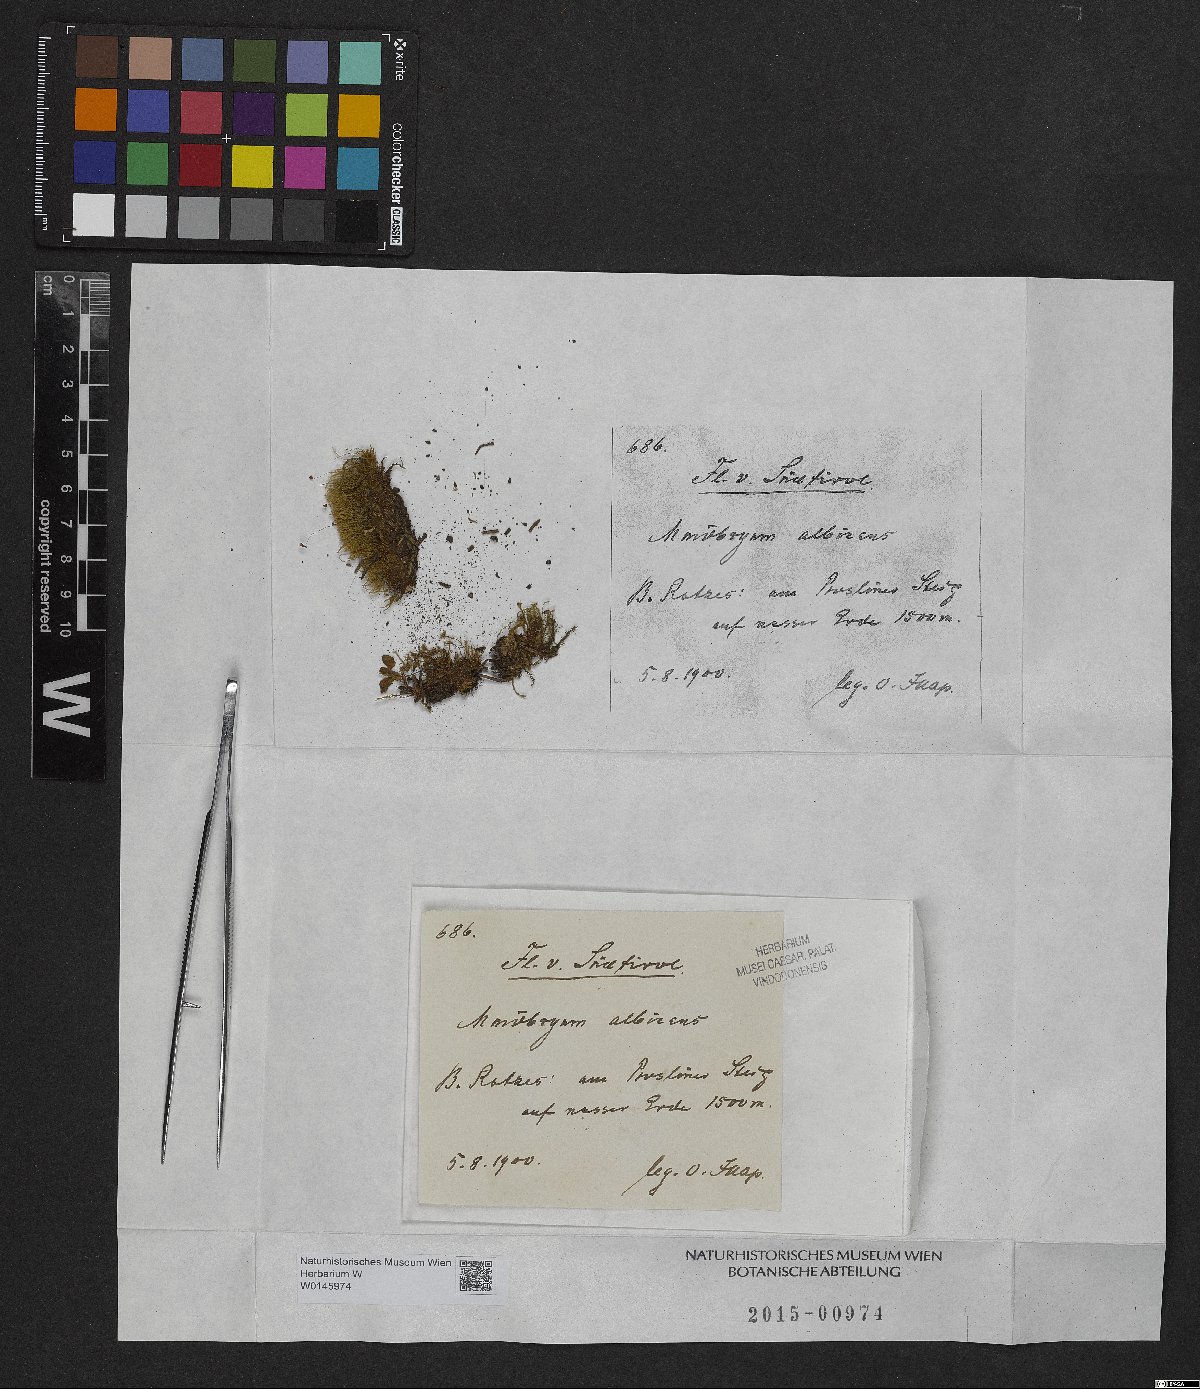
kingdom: Plantae
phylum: Bryophyta
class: Bryopsida
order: Bryales
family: Mniaceae
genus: Pohlia
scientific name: Pohlia wahlenbergii
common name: Wahlenberg's nodding moss
